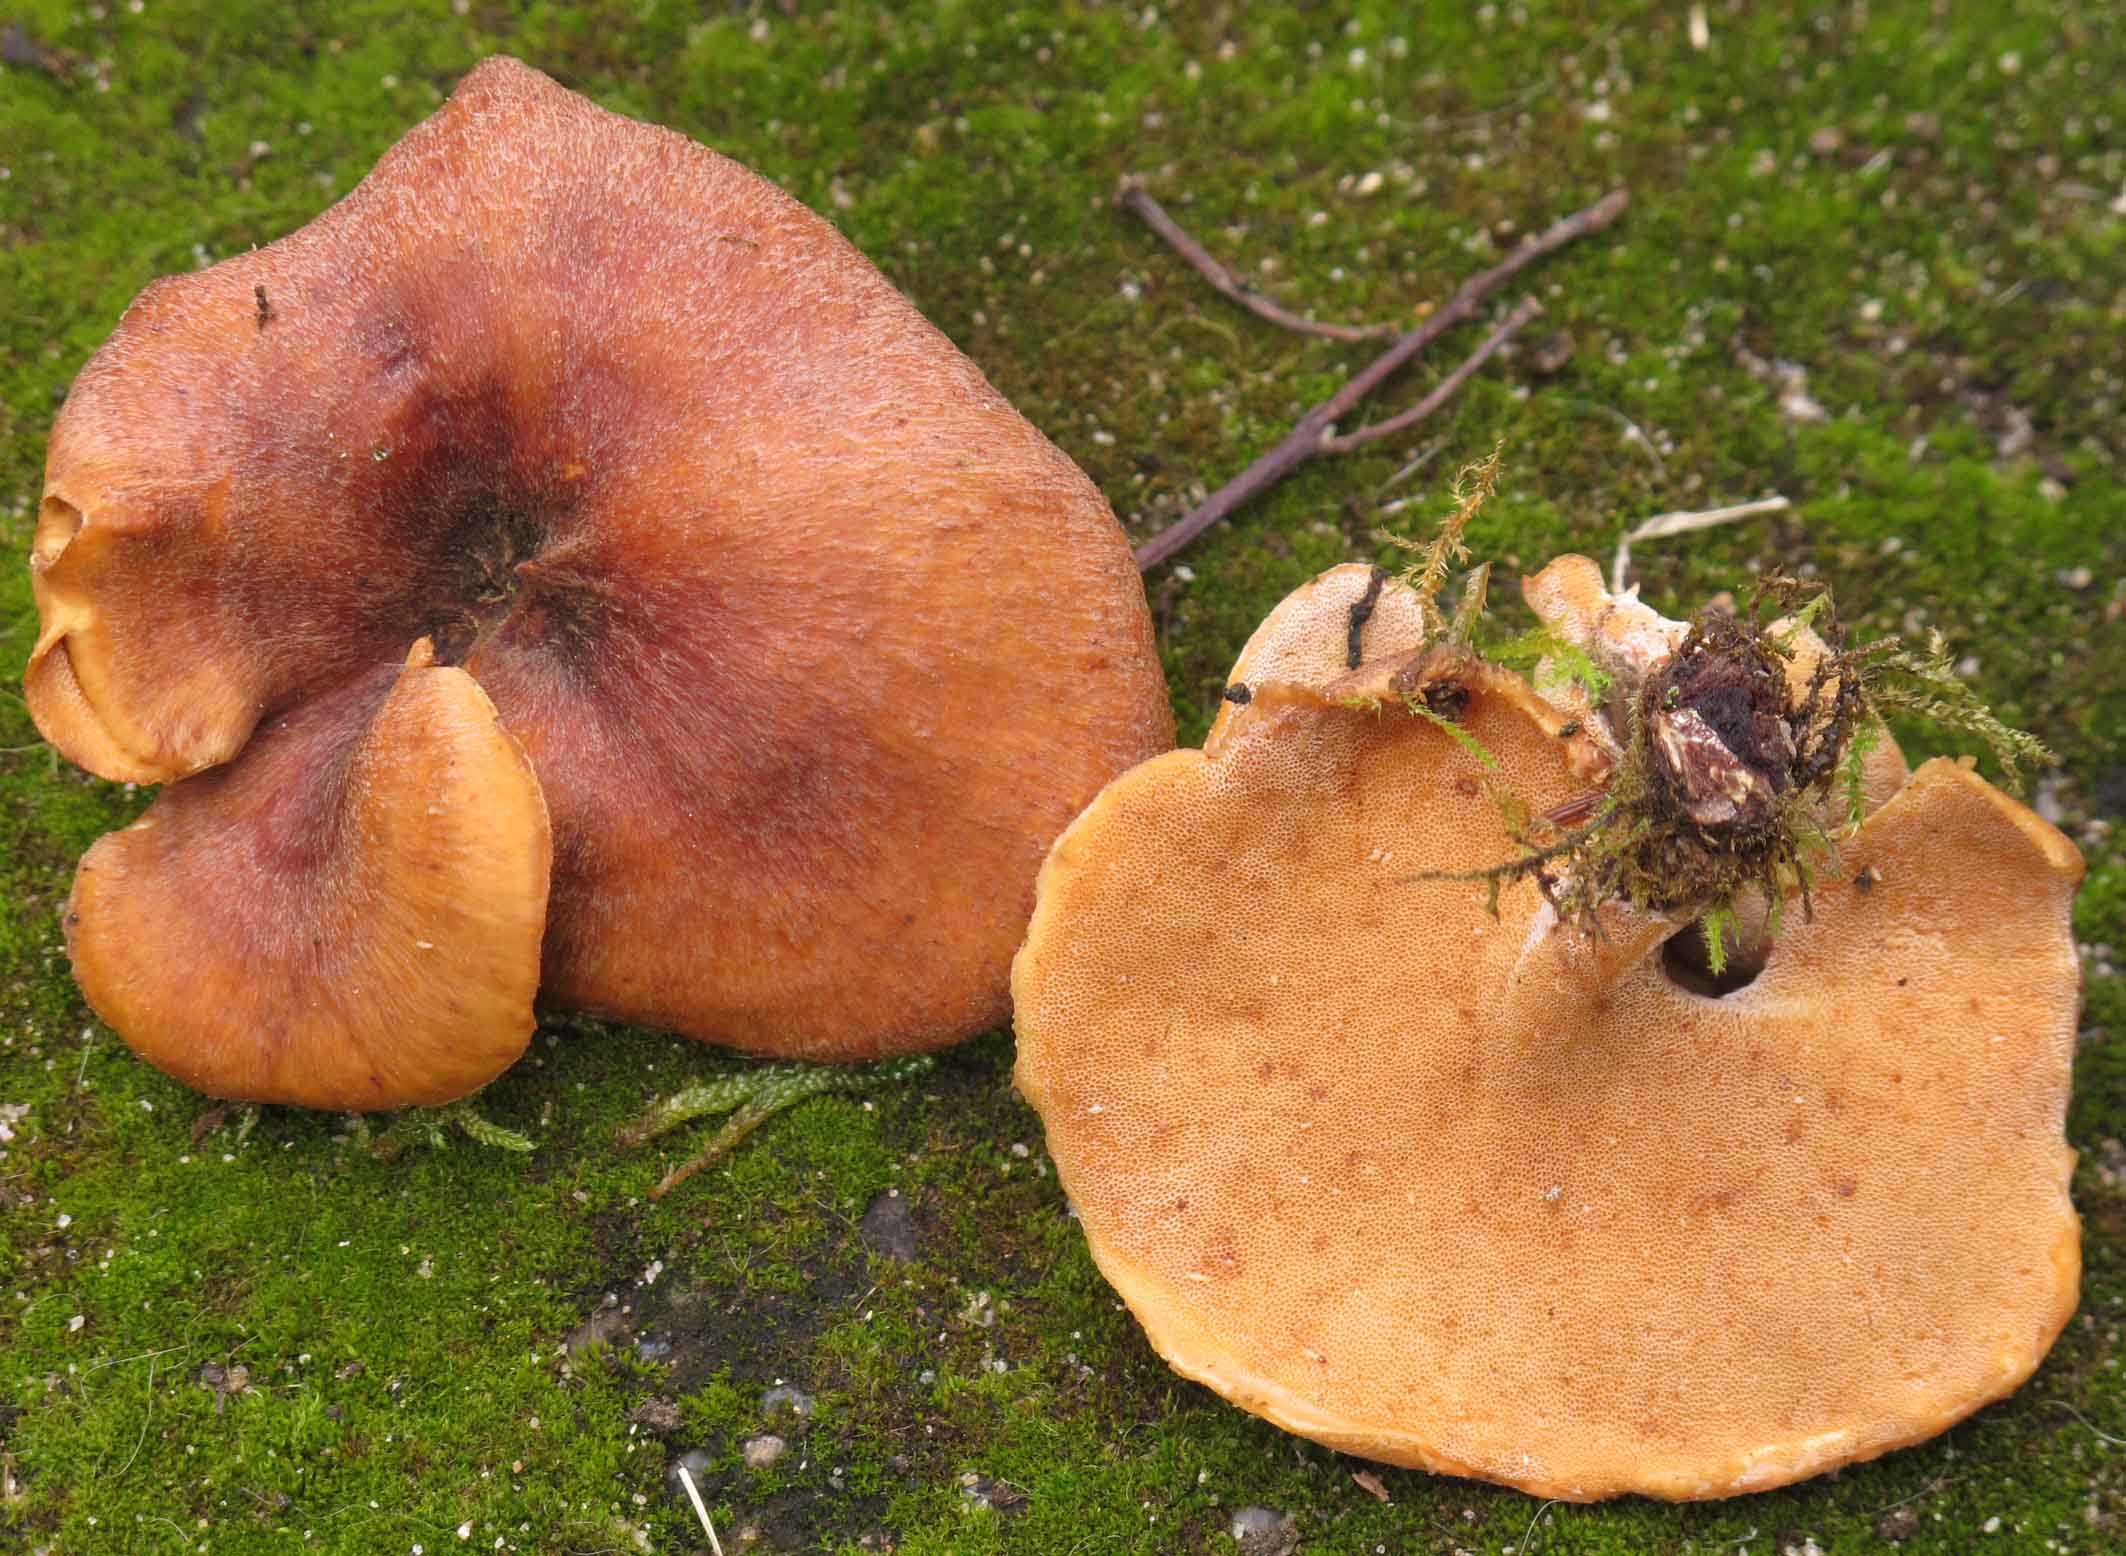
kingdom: Fungi
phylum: Basidiomycota
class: Agaricomycetes
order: Polyporales
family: Polyporaceae
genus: Picipes
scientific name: Picipes tubaeformis
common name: trompet-stilkporesvamp
